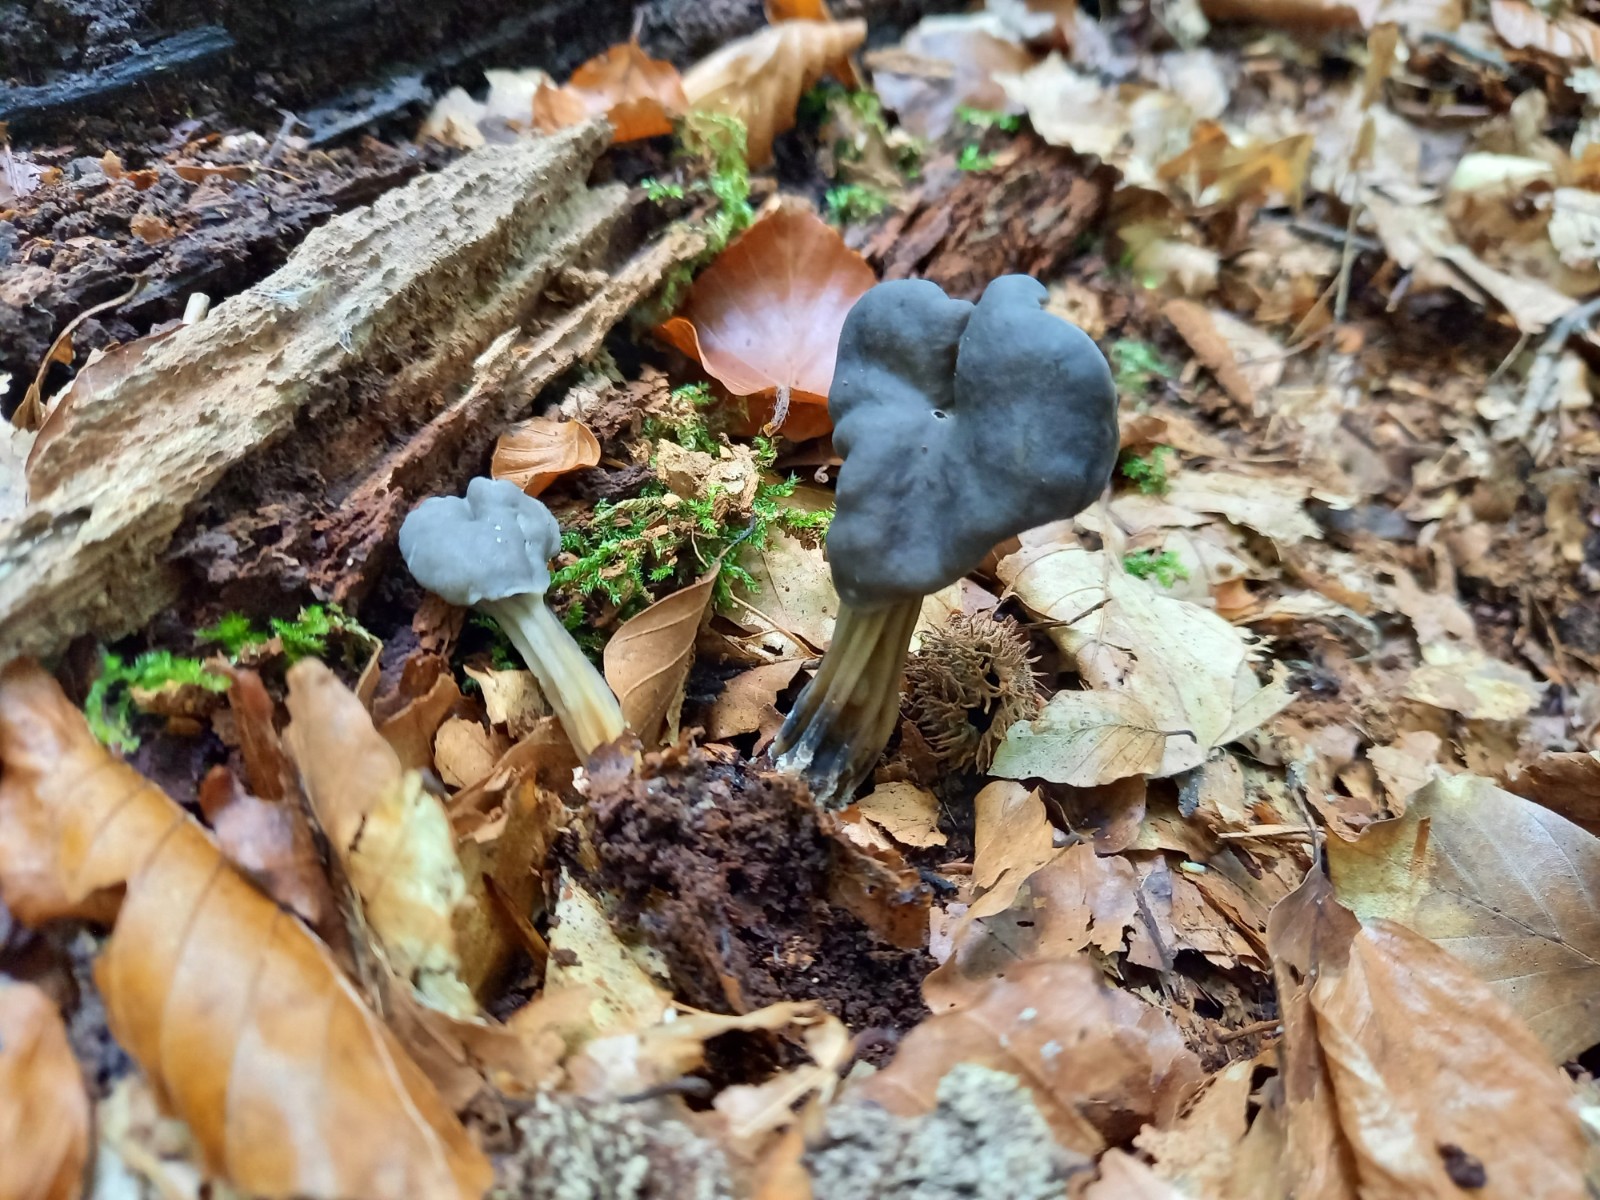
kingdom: Fungi
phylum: Ascomycota
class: Pezizomycetes
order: Pezizales
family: Helvellaceae
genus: Helvella
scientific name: Helvella lacunosa
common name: grubet foldhat
